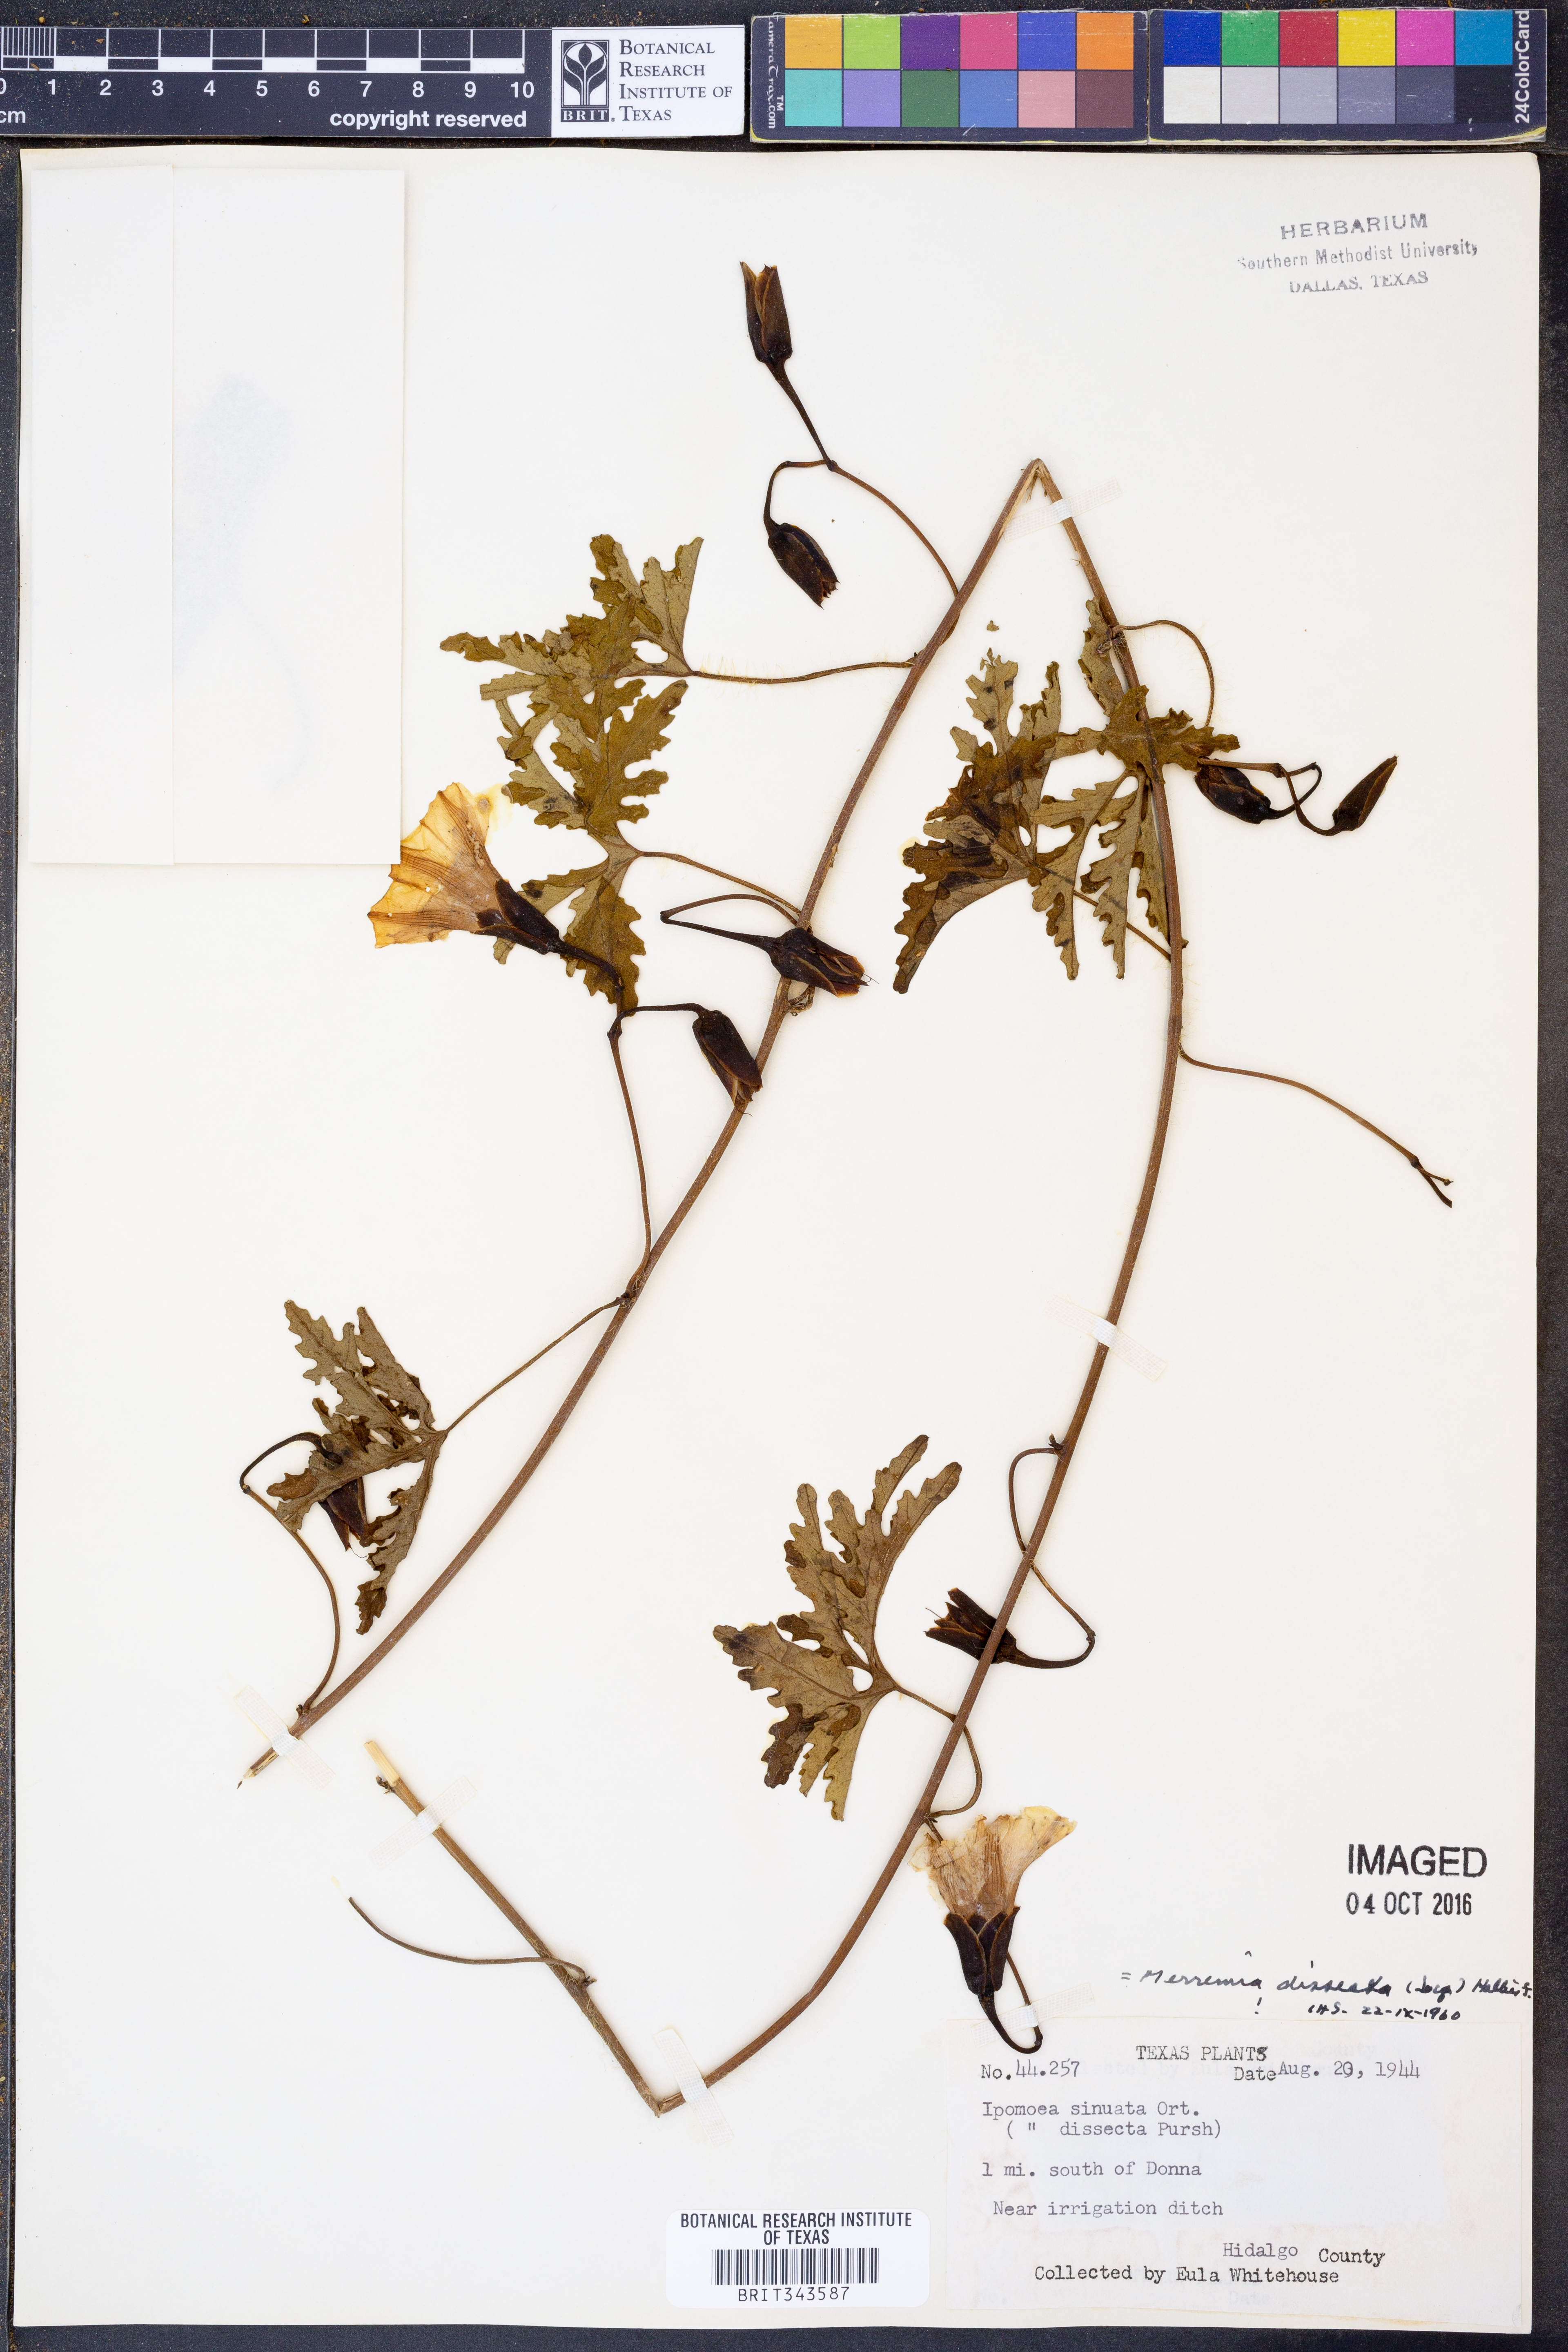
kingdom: Plantae
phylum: Tracheophyta
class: Magnoliopsida
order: Solanales
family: Convolvulaceae
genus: Distimake
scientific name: Distimake dissectus
